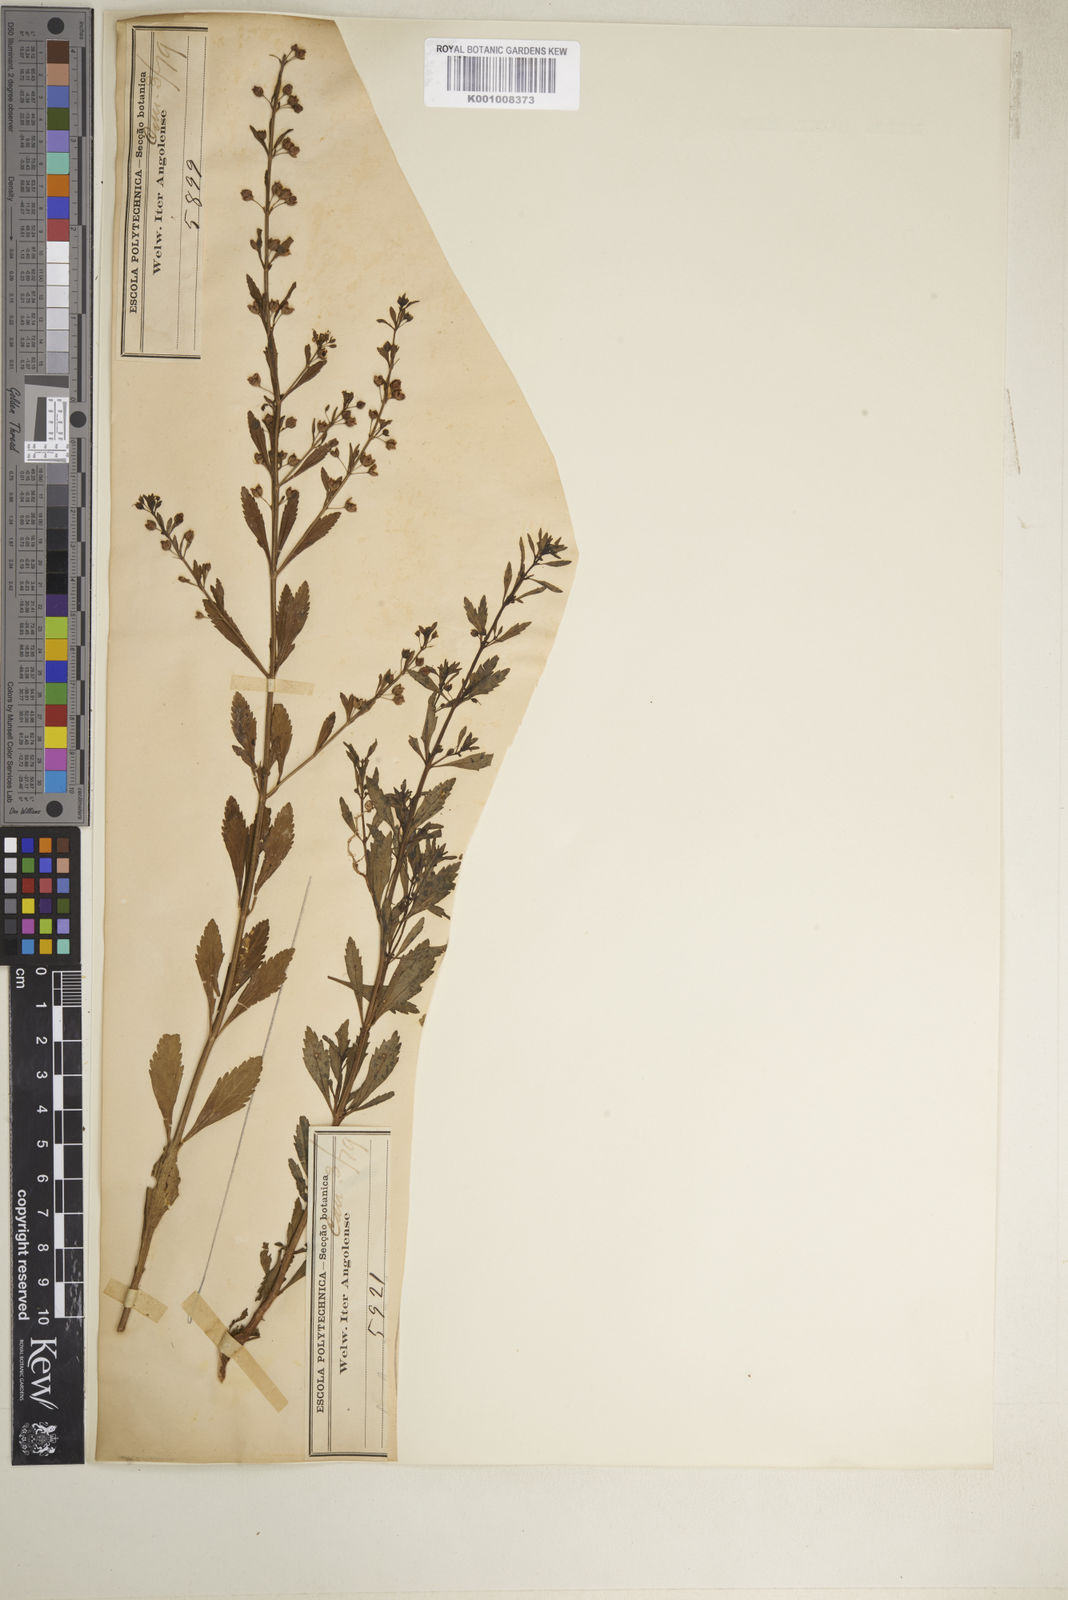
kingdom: Plantae
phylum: Tracheophyta
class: Magnoliopsida
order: Lamiales
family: Plantaginaceae
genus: Scoparia
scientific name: Scoparia dulcis
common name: Scoparia-weed
